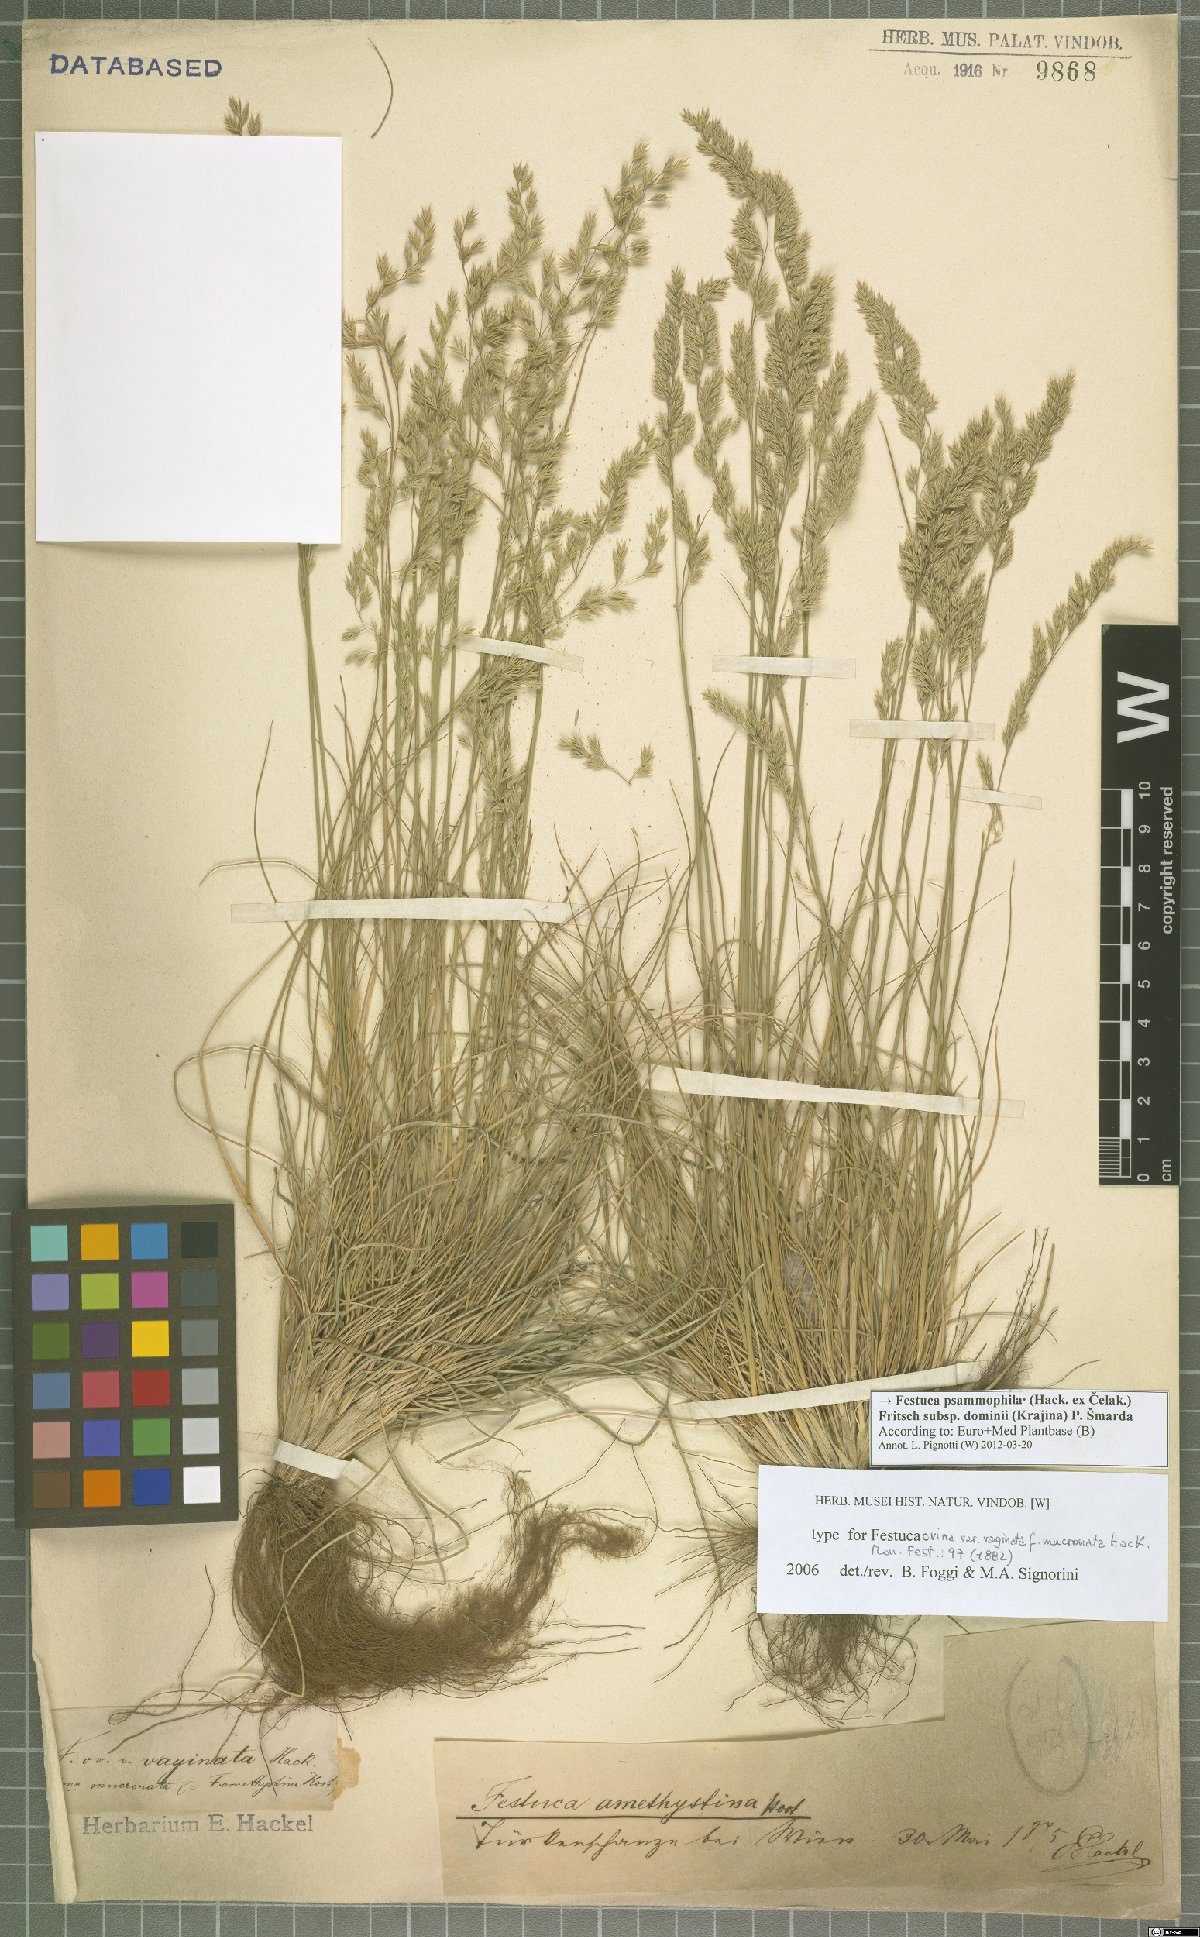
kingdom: Plantae
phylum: Tracheophyta
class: Liliopsida
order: Poales
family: Poaceae
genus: Festuca
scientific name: Festuca vaginata
